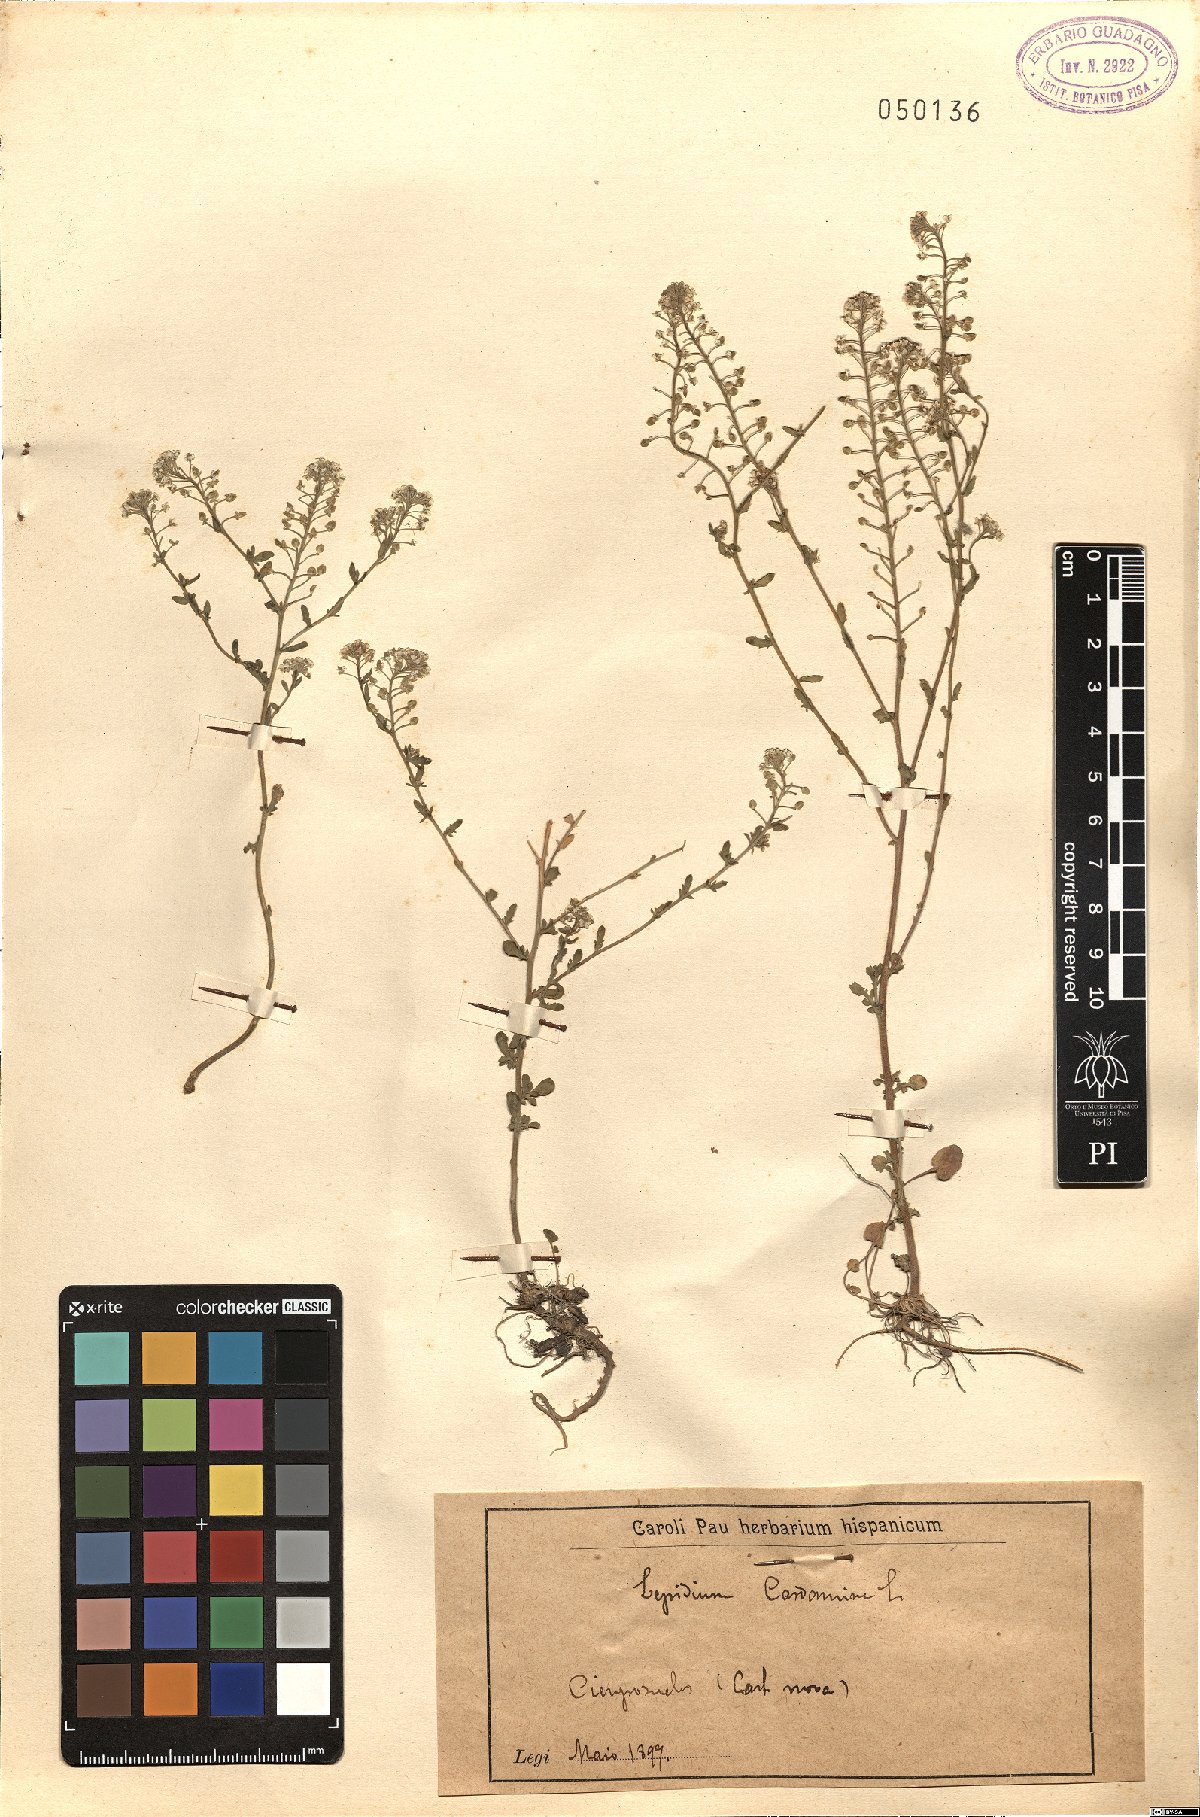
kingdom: Plantae
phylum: Tracheophyta
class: Magnoliopsida
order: Brassicales
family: Brassicaceae
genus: Lepidium
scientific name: Lepidium cardamine
